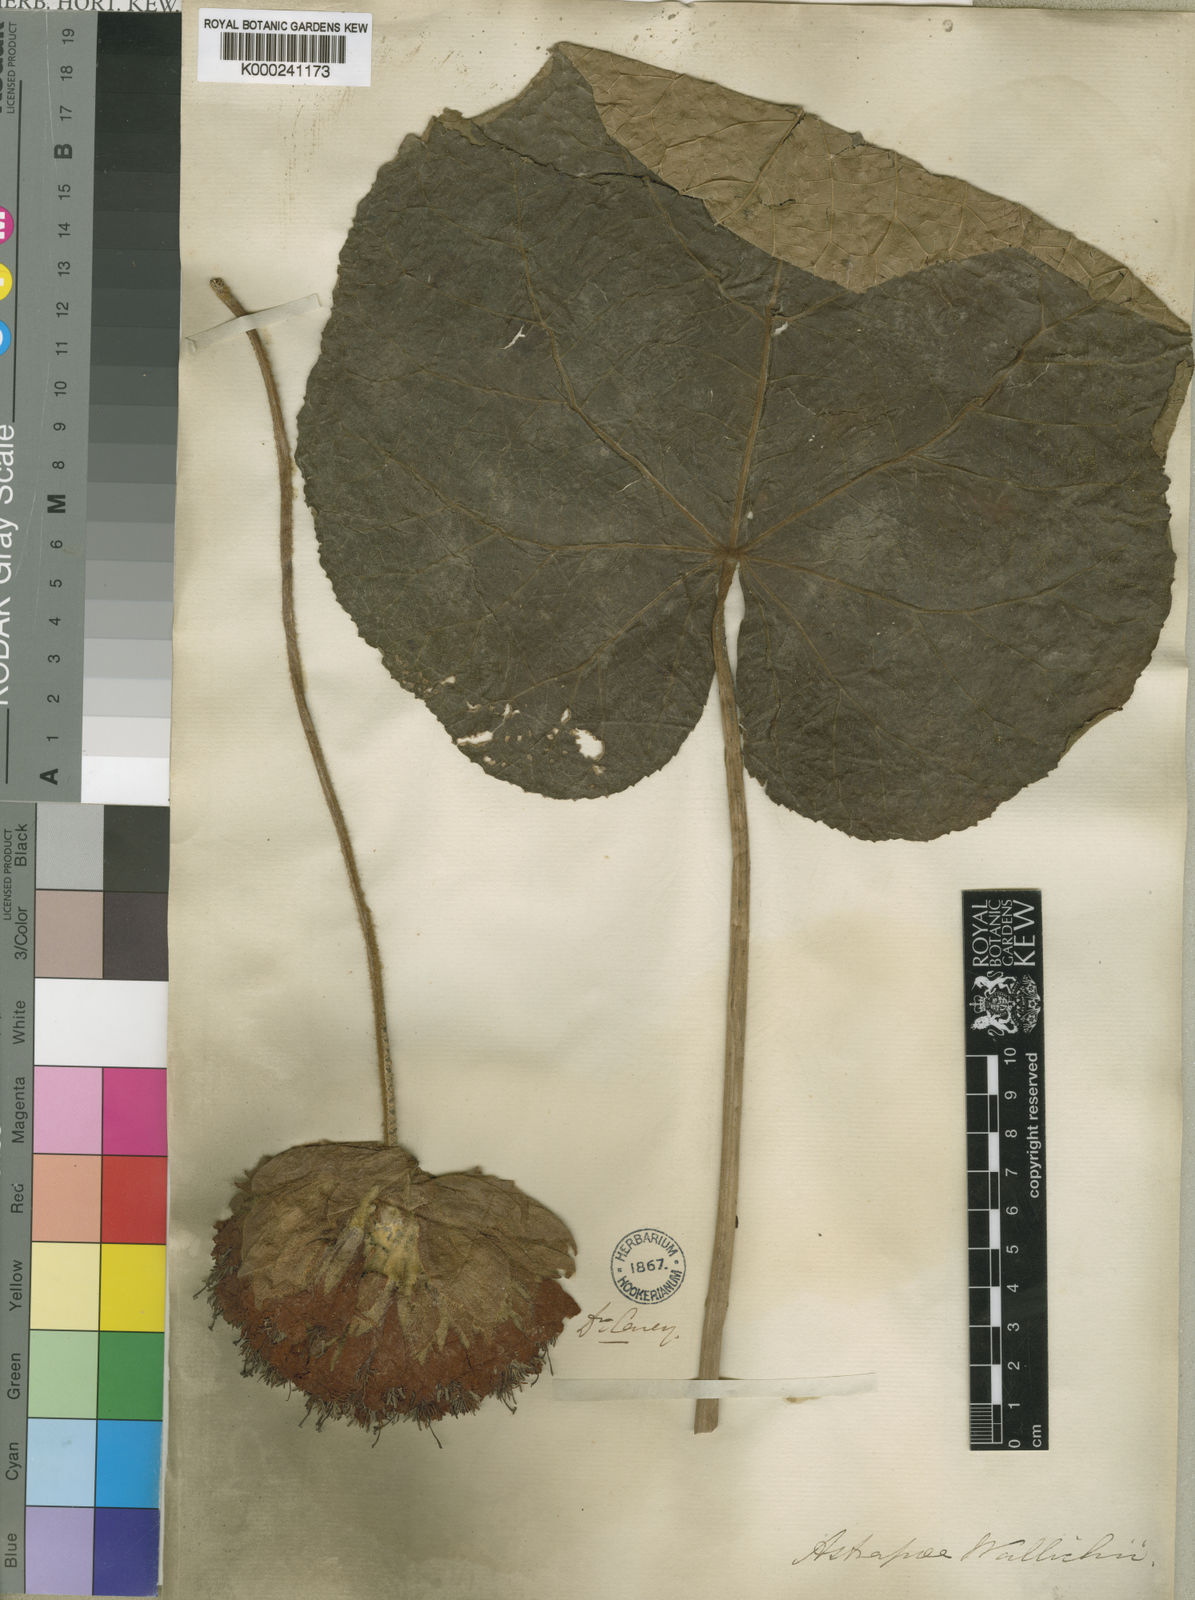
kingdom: Plantae
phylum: Tracheophyta
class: Magnoliopsida
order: Malvales
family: Malvaceae
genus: Dombeya
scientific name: Dombeya wallichii
